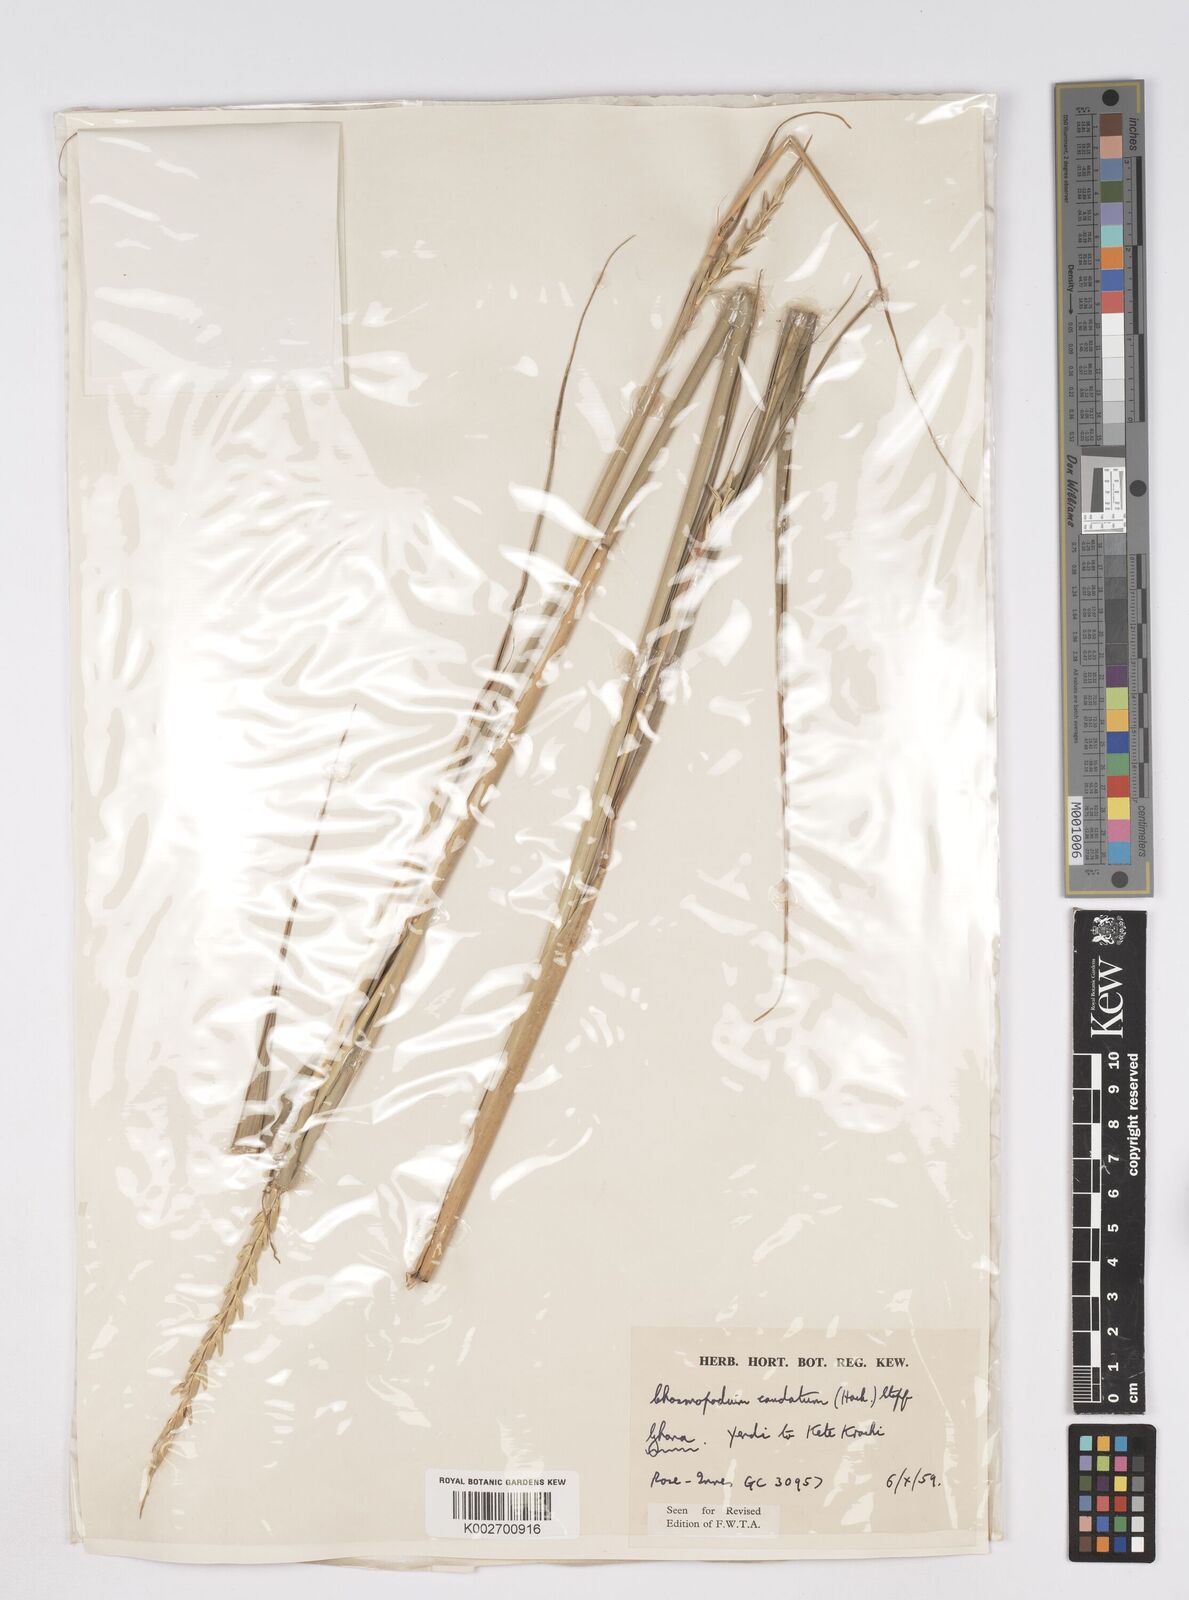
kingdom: Plantae
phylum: Tracheophyta
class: Liliopsida
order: Poales
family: Poaceae
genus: Chasmopodium
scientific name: Chasmopodium caudatum
